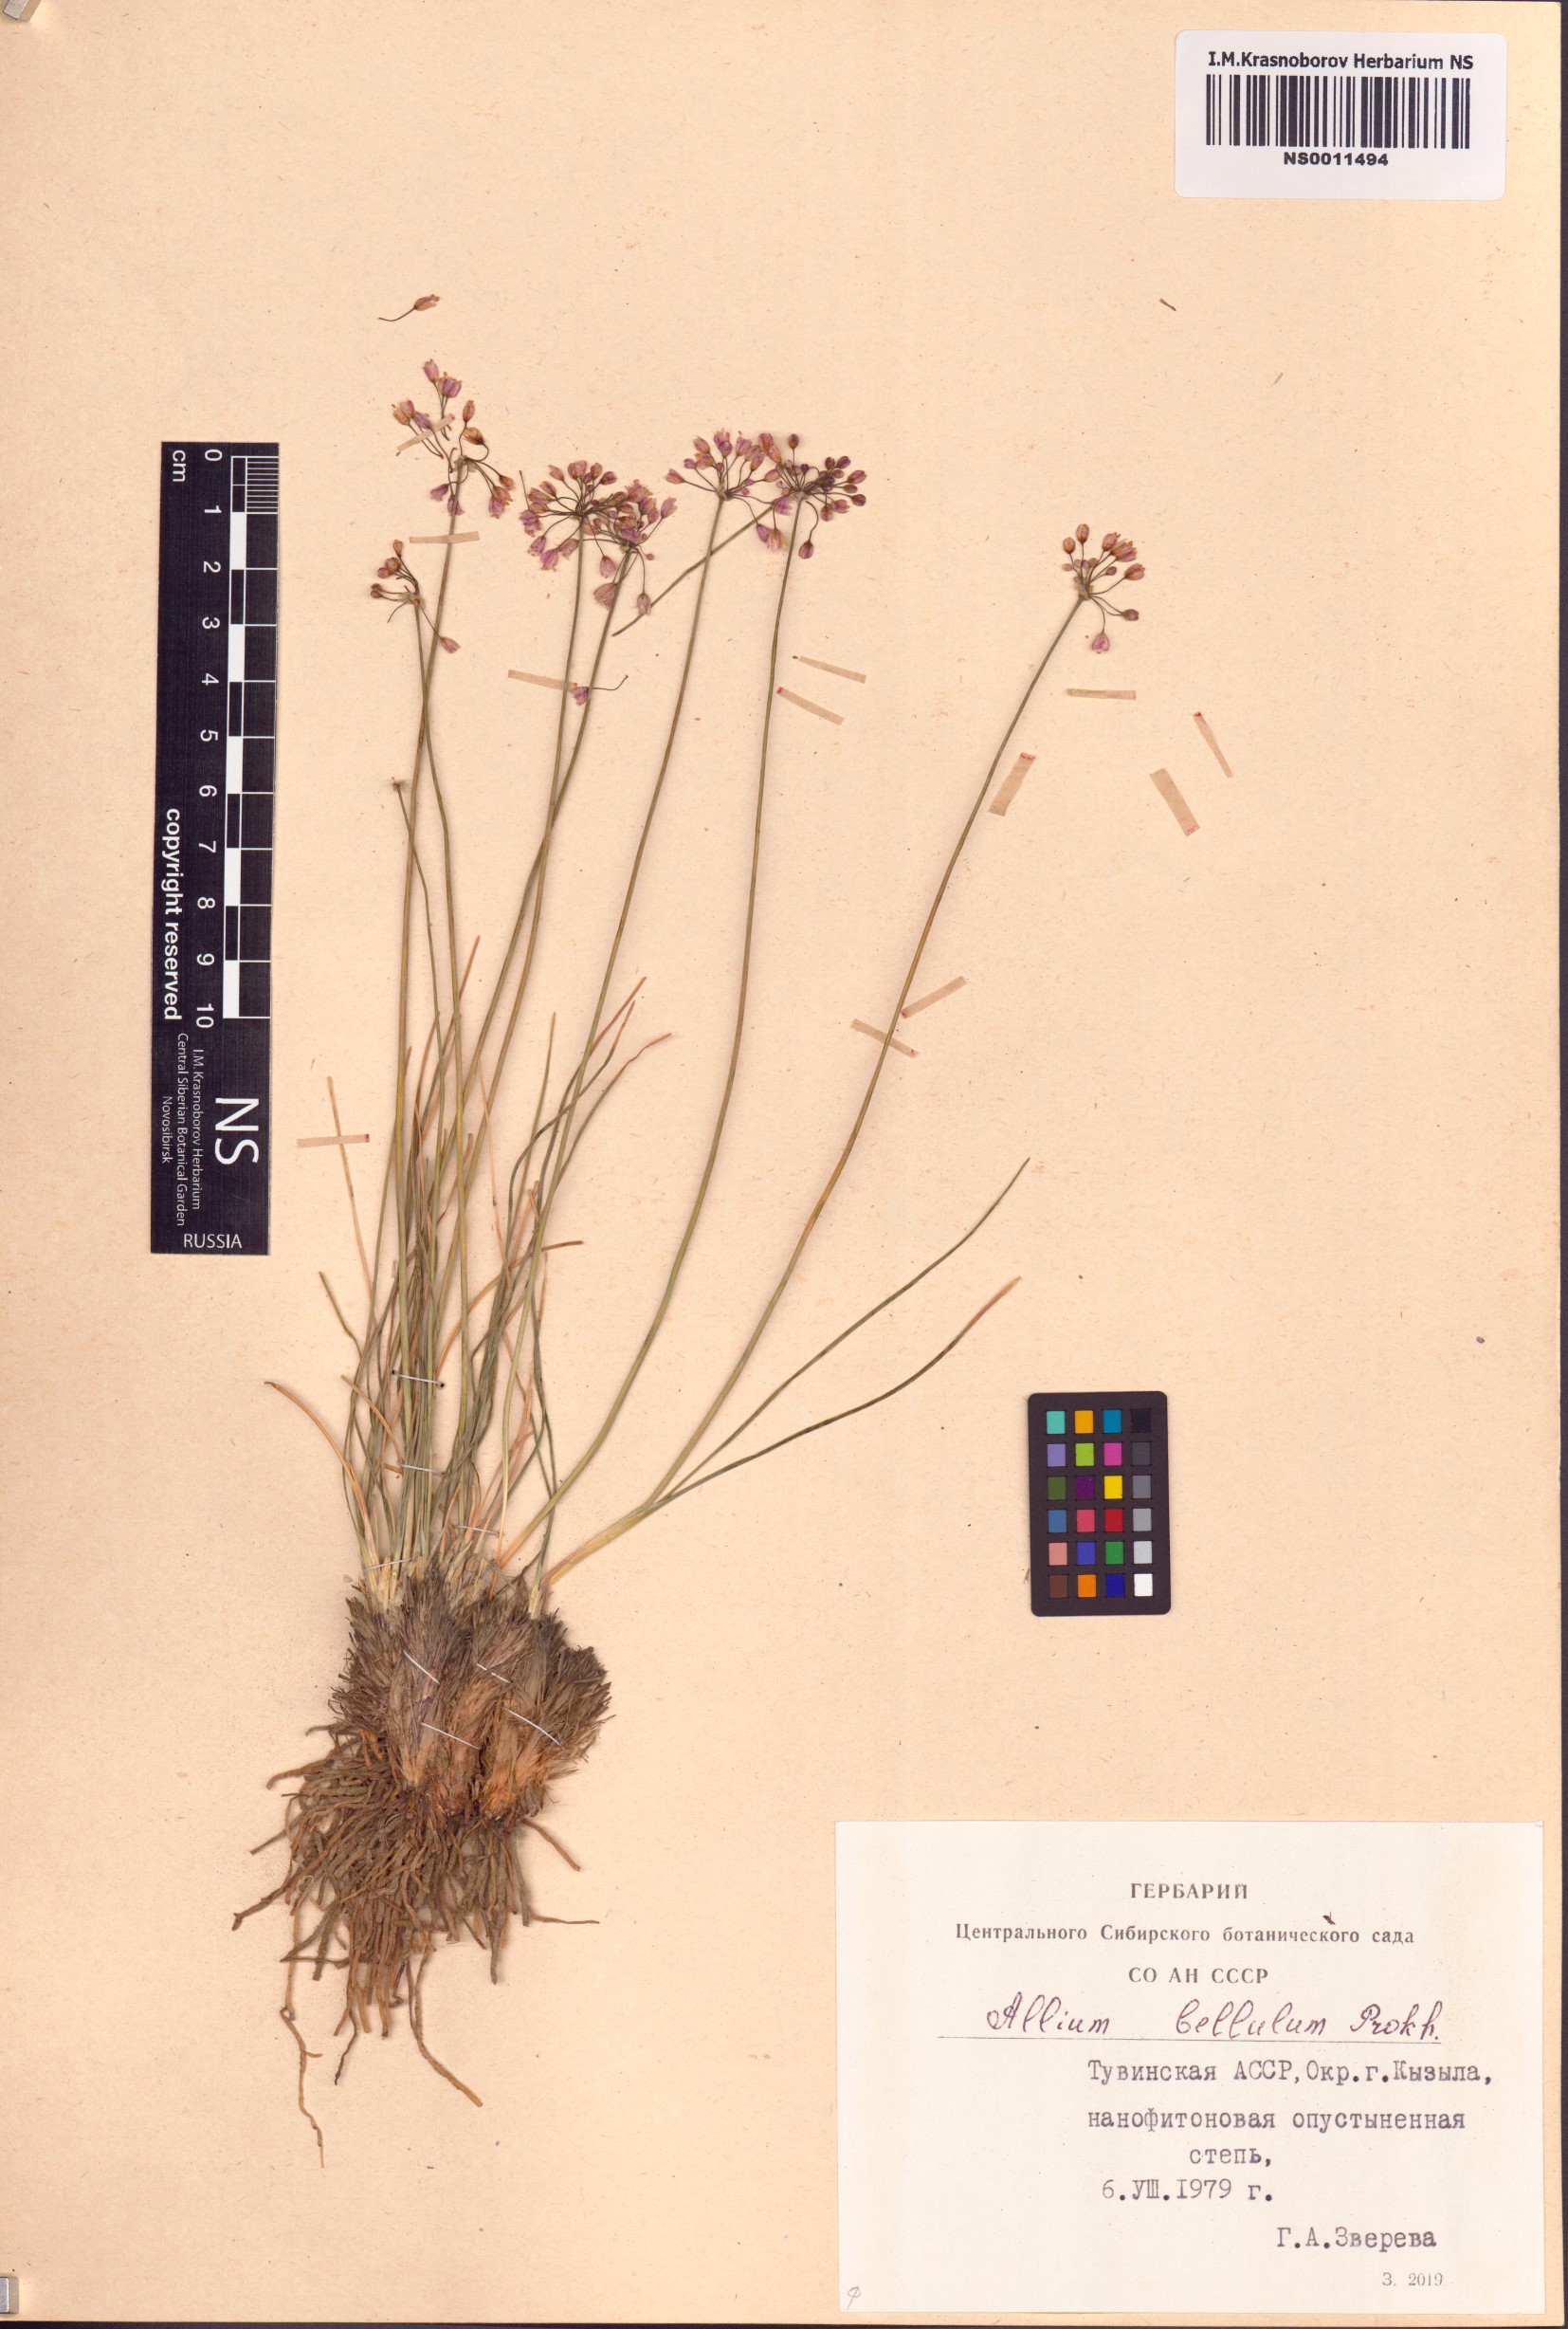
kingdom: Plantae
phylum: Tracheophyta
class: Liliopsida
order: Asparagales
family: Amaryllidaceae
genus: Allium
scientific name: Allium bellulum
